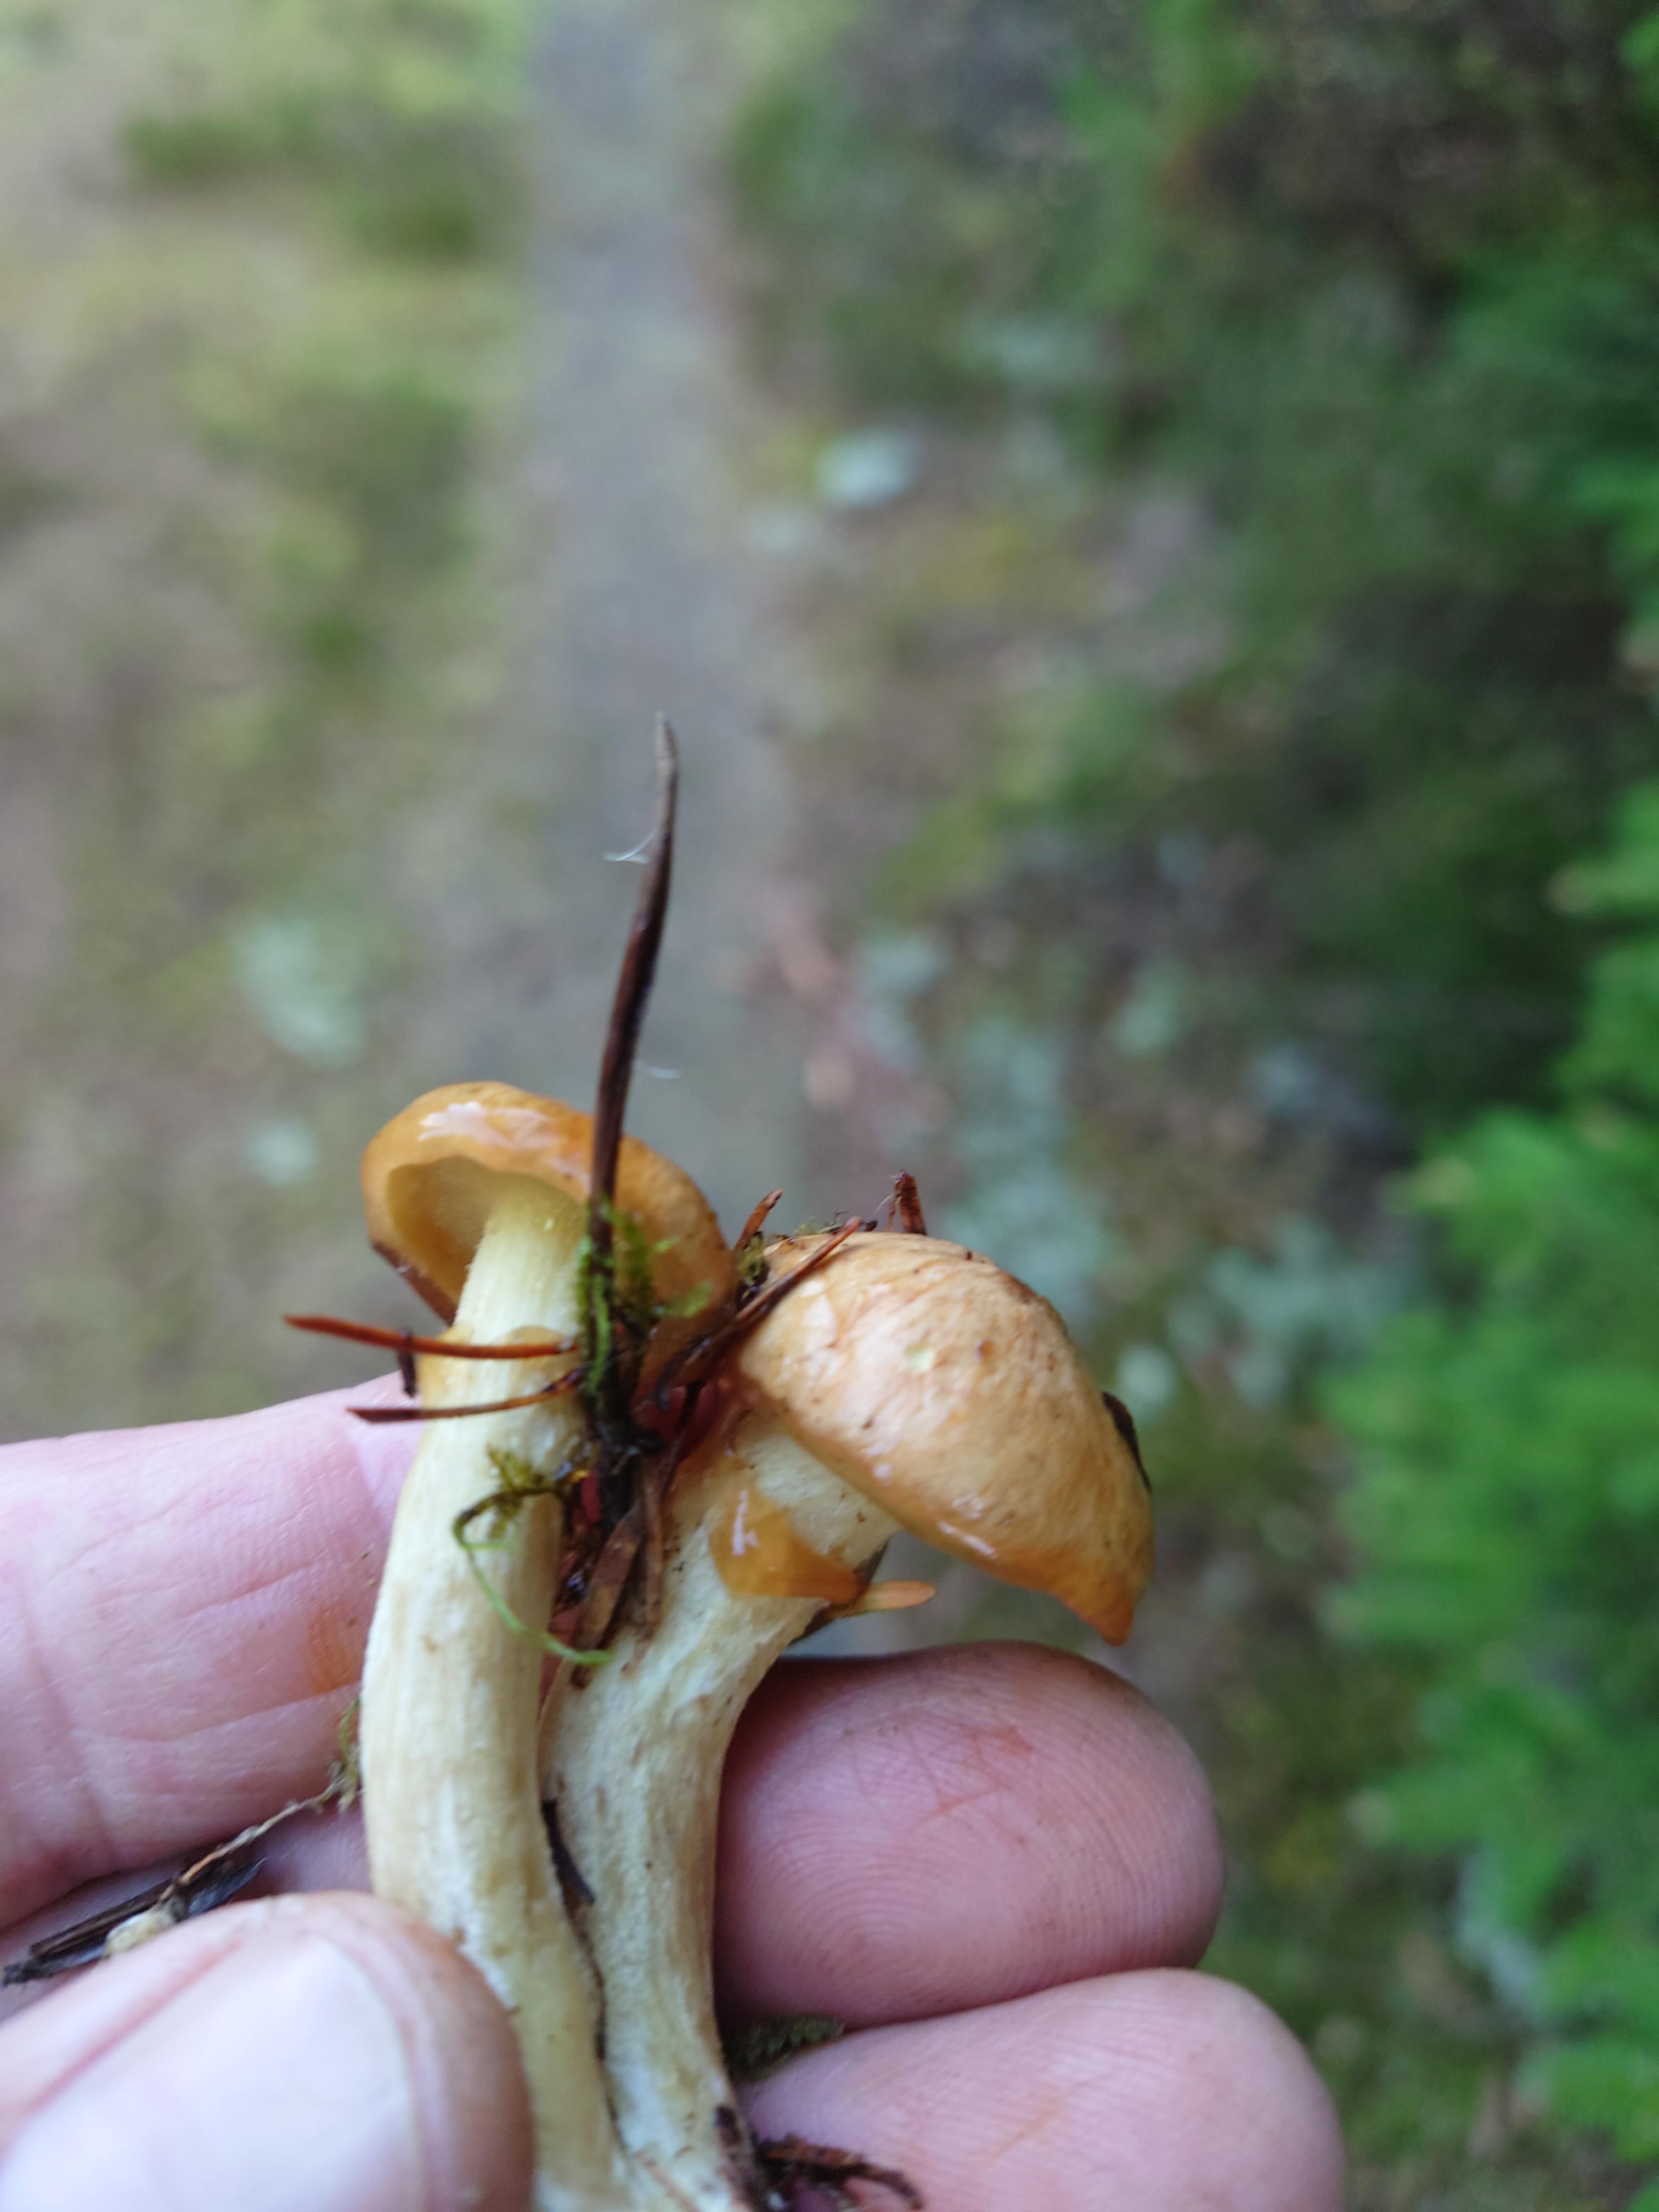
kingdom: Fungi
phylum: Basidiomycota
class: Agaricomycetes
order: Boletales
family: Suillaceae
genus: Suillus
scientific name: Suillus flavidus
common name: mose-slimrørhat
